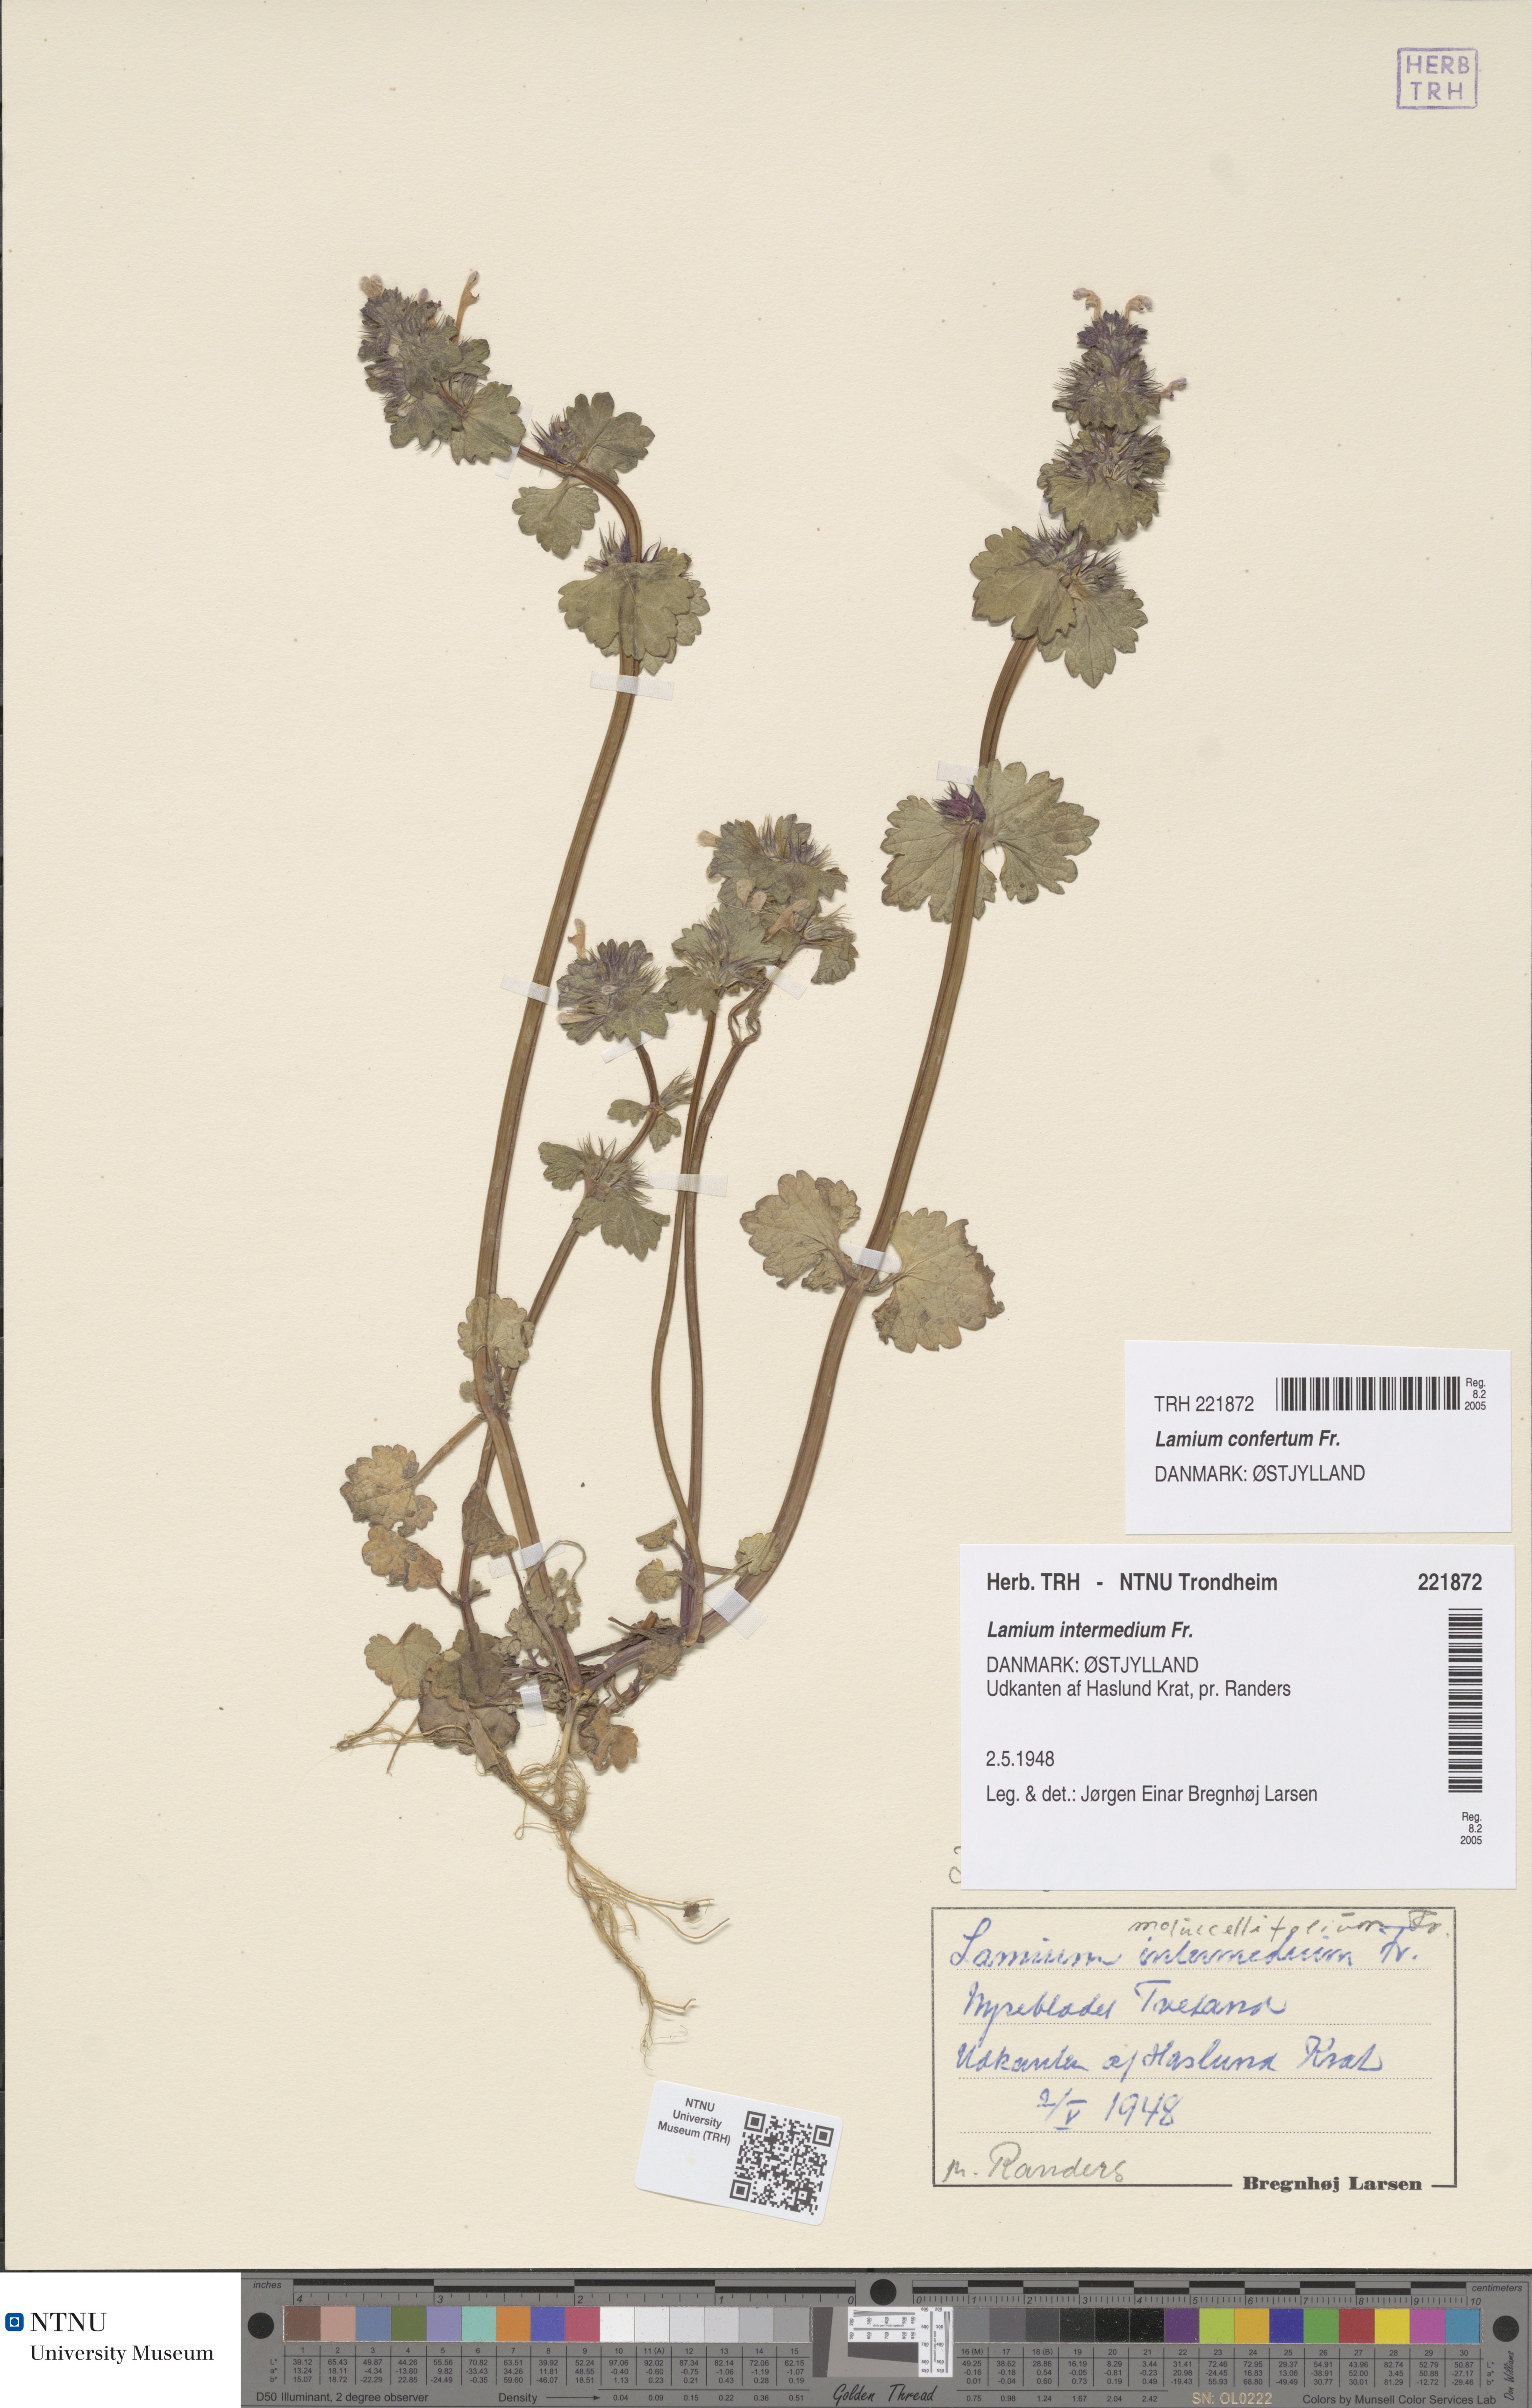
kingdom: Plantae
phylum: Tracheophyta
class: Magnoliopsida
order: Lamiales
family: Lamiaceae
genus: Lamium
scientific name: Lamium confertum
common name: Northern dead-nettle
